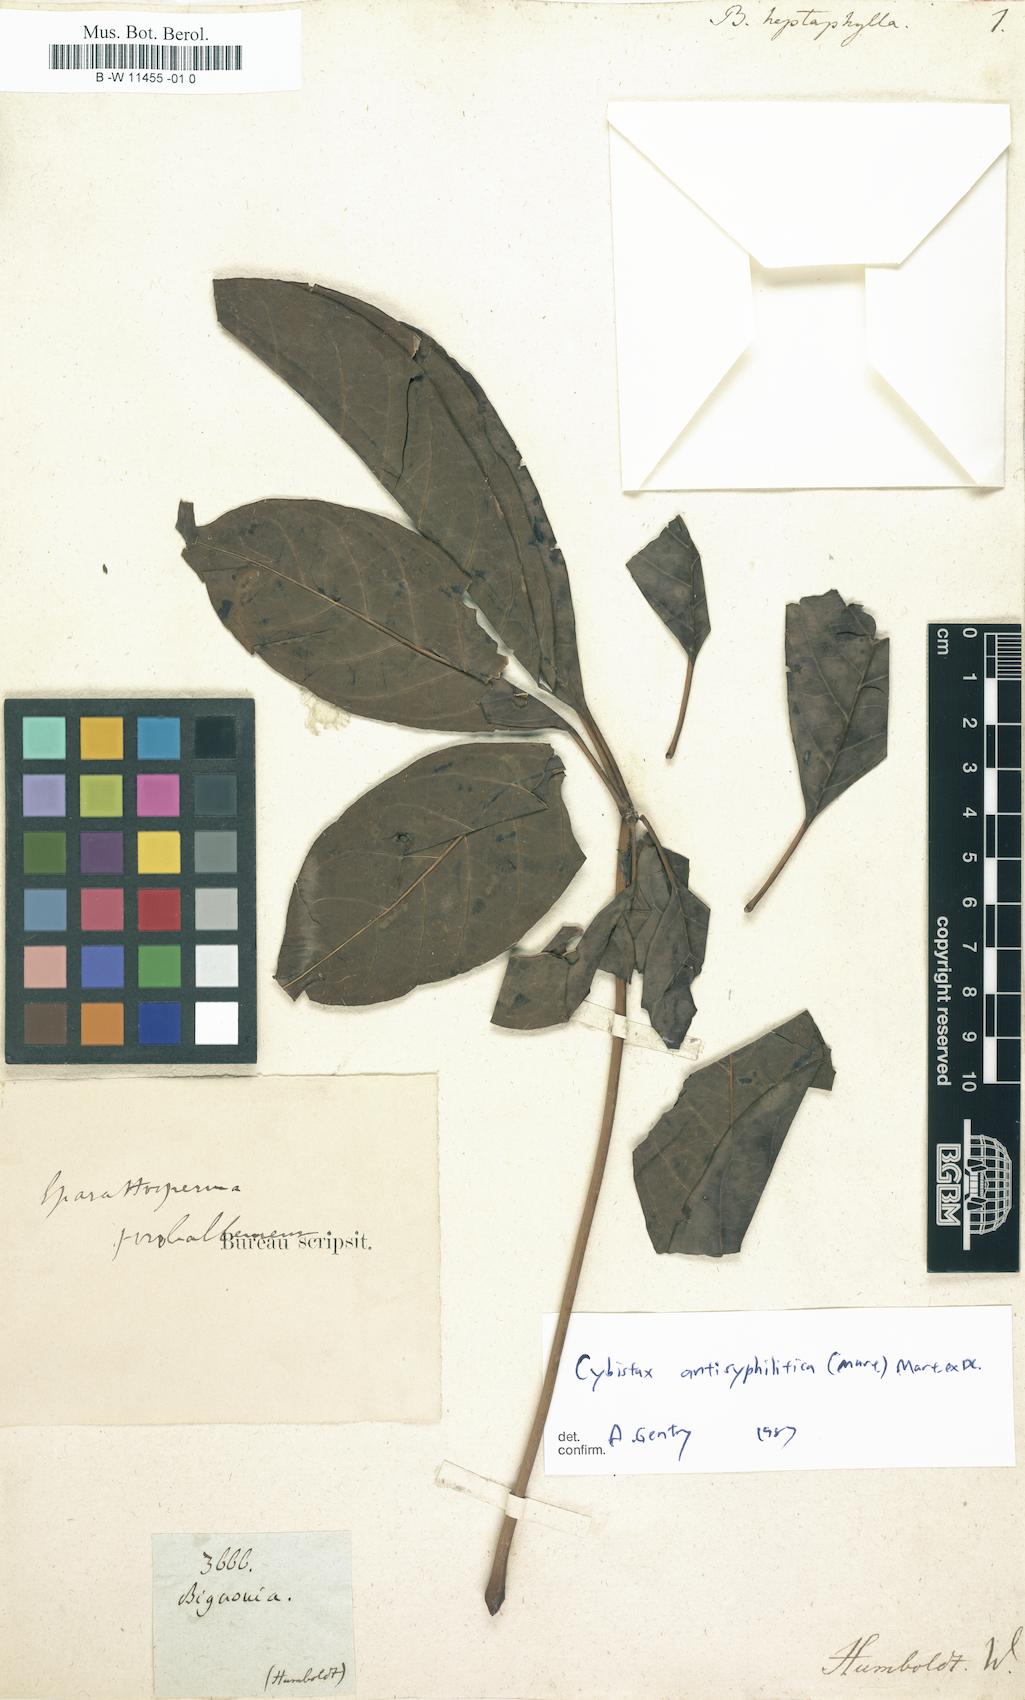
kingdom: Plantae
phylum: Tracheophyta
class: Magnoliopsida
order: Lamiales
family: Bignoniaceae
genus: Handroanthus
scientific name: Handroanthus heptaphyllus
